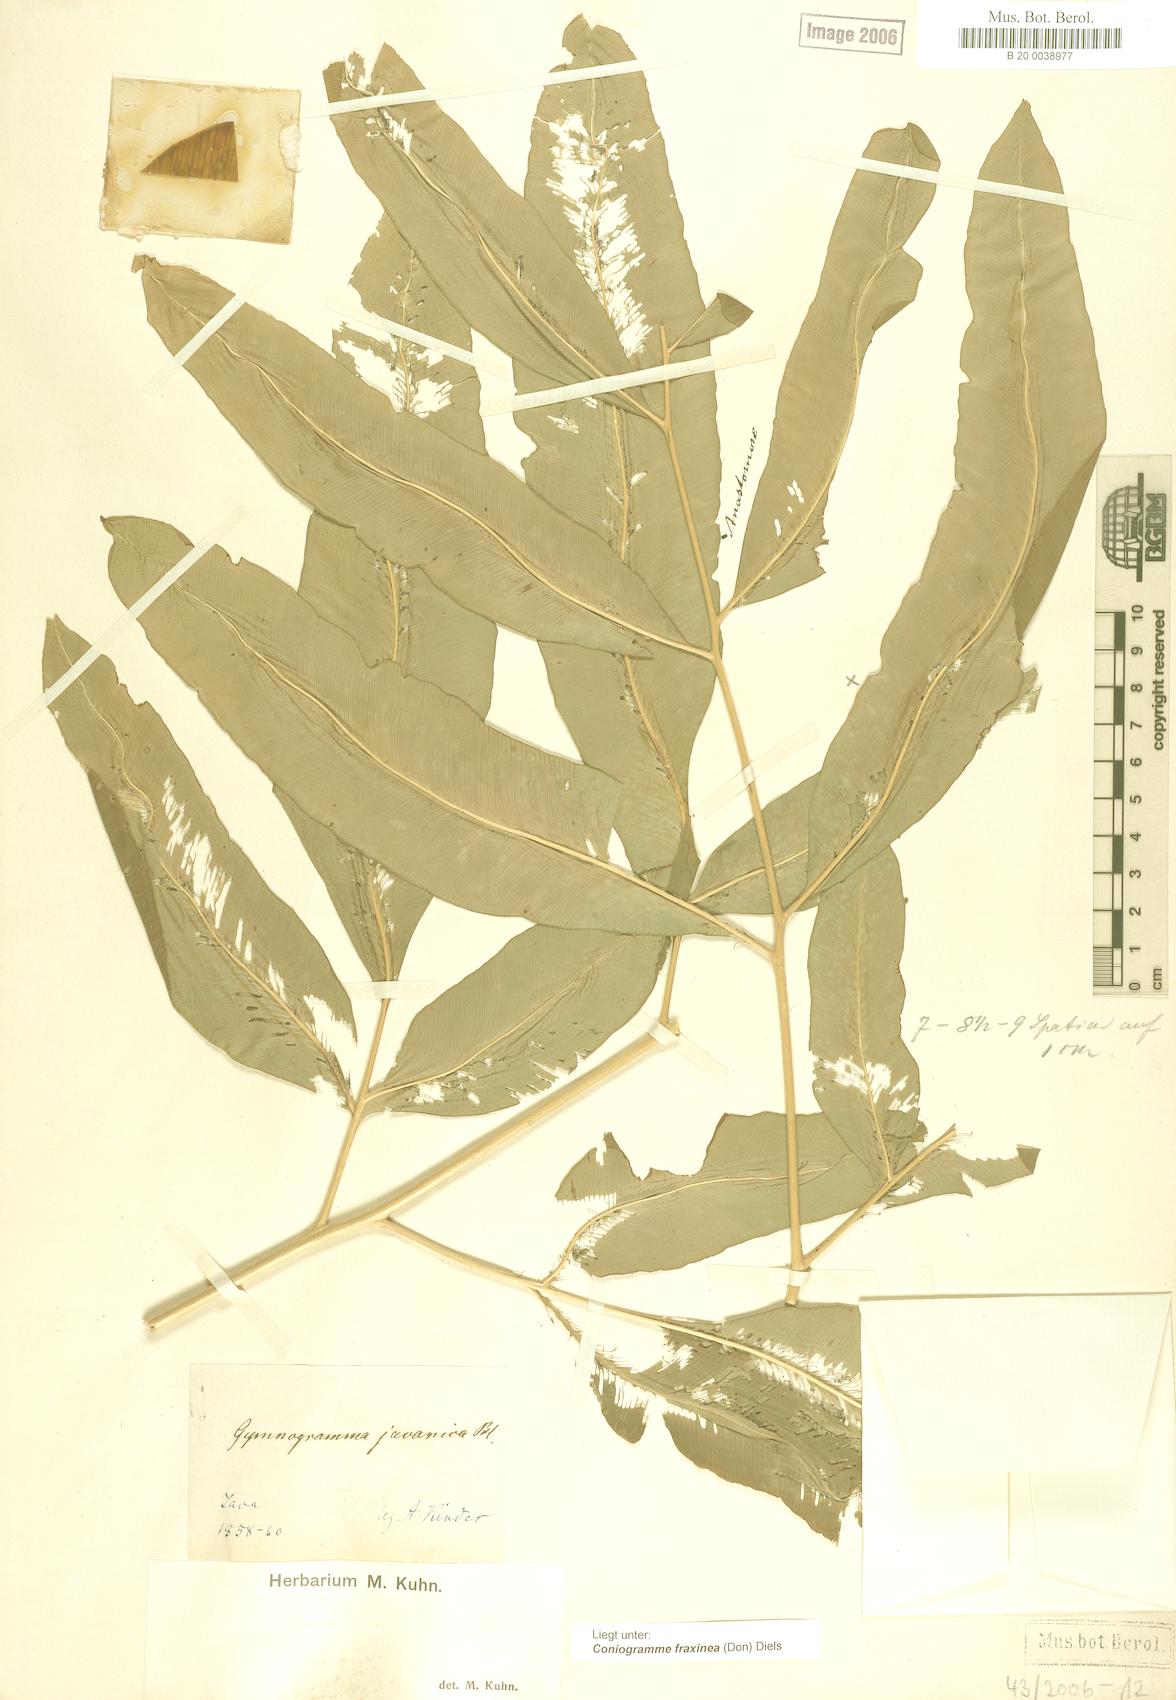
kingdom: Plantae
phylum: Tracheophyta
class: Polypodiopsida
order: Polypodiales
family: Pteridaceae
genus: Coniogramme
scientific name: Coniogramme fraxinea
